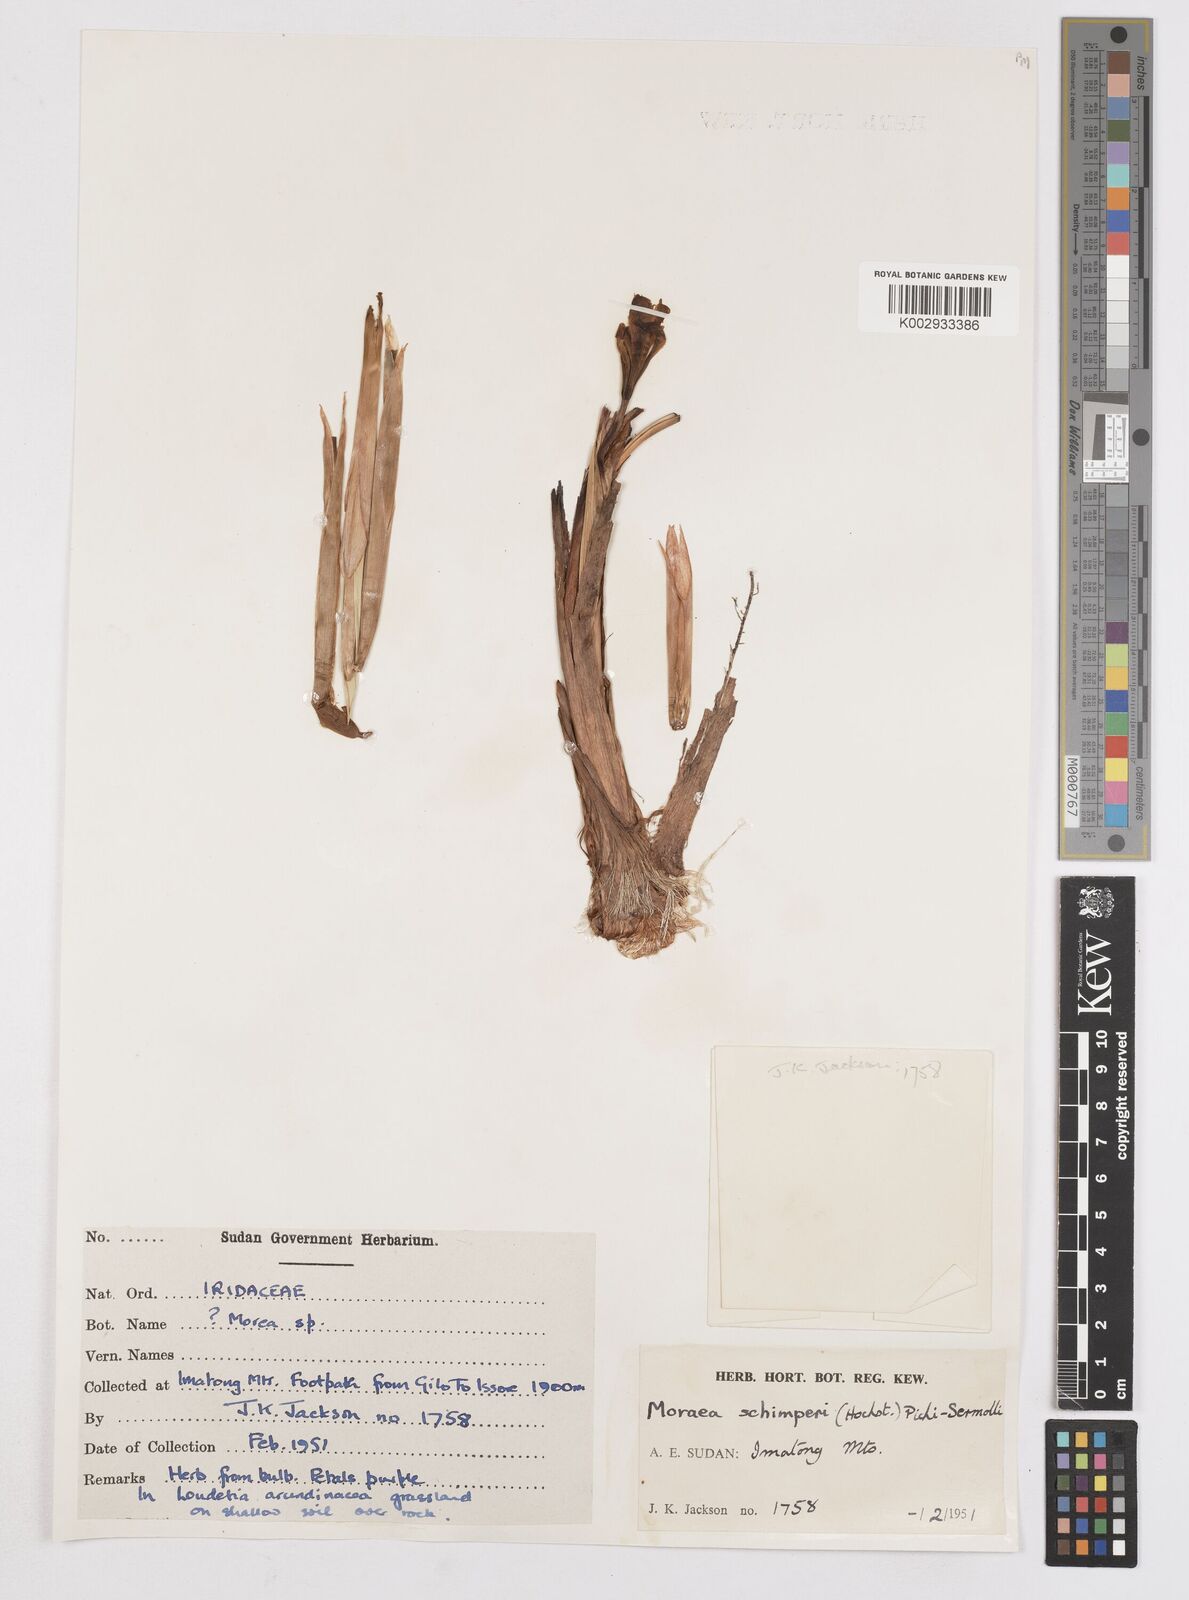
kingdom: Plantae
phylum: Tracheophyta
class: Liliopsida
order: Asparagales
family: Iridaceae
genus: Moraea
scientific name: Moraea schimperi
